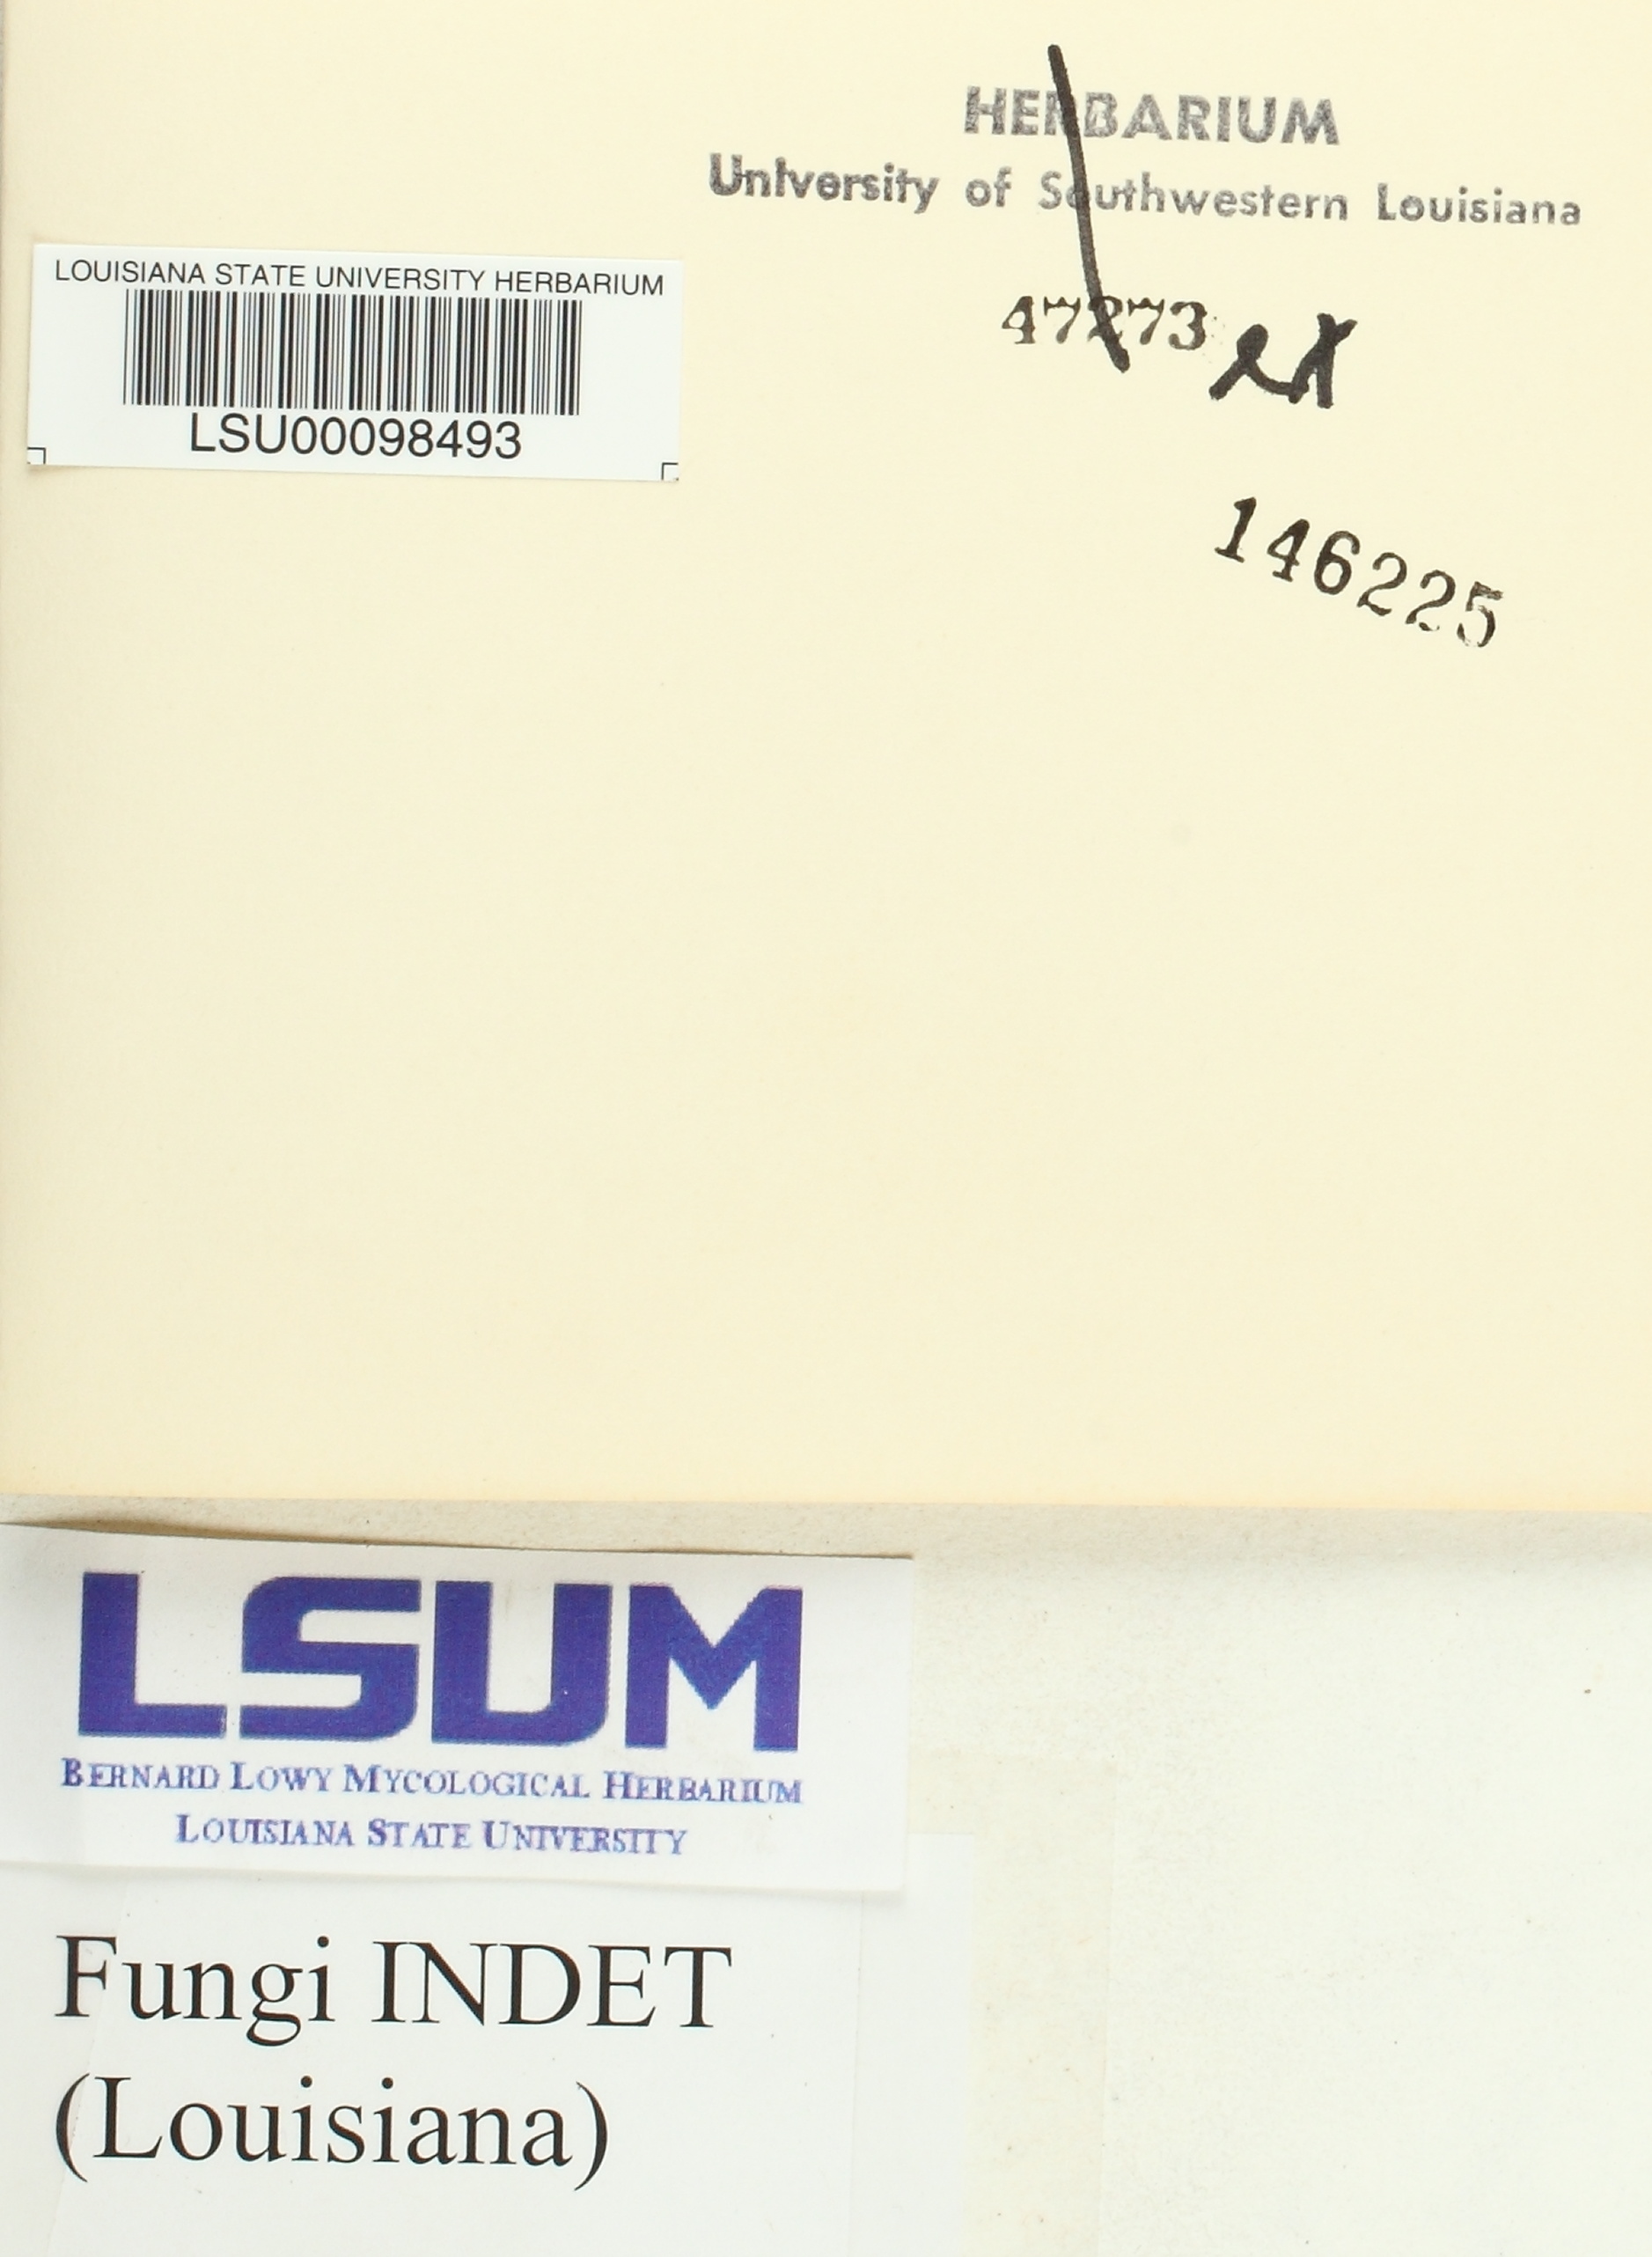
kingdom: Fungi
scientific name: Fungi
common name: Fungi
